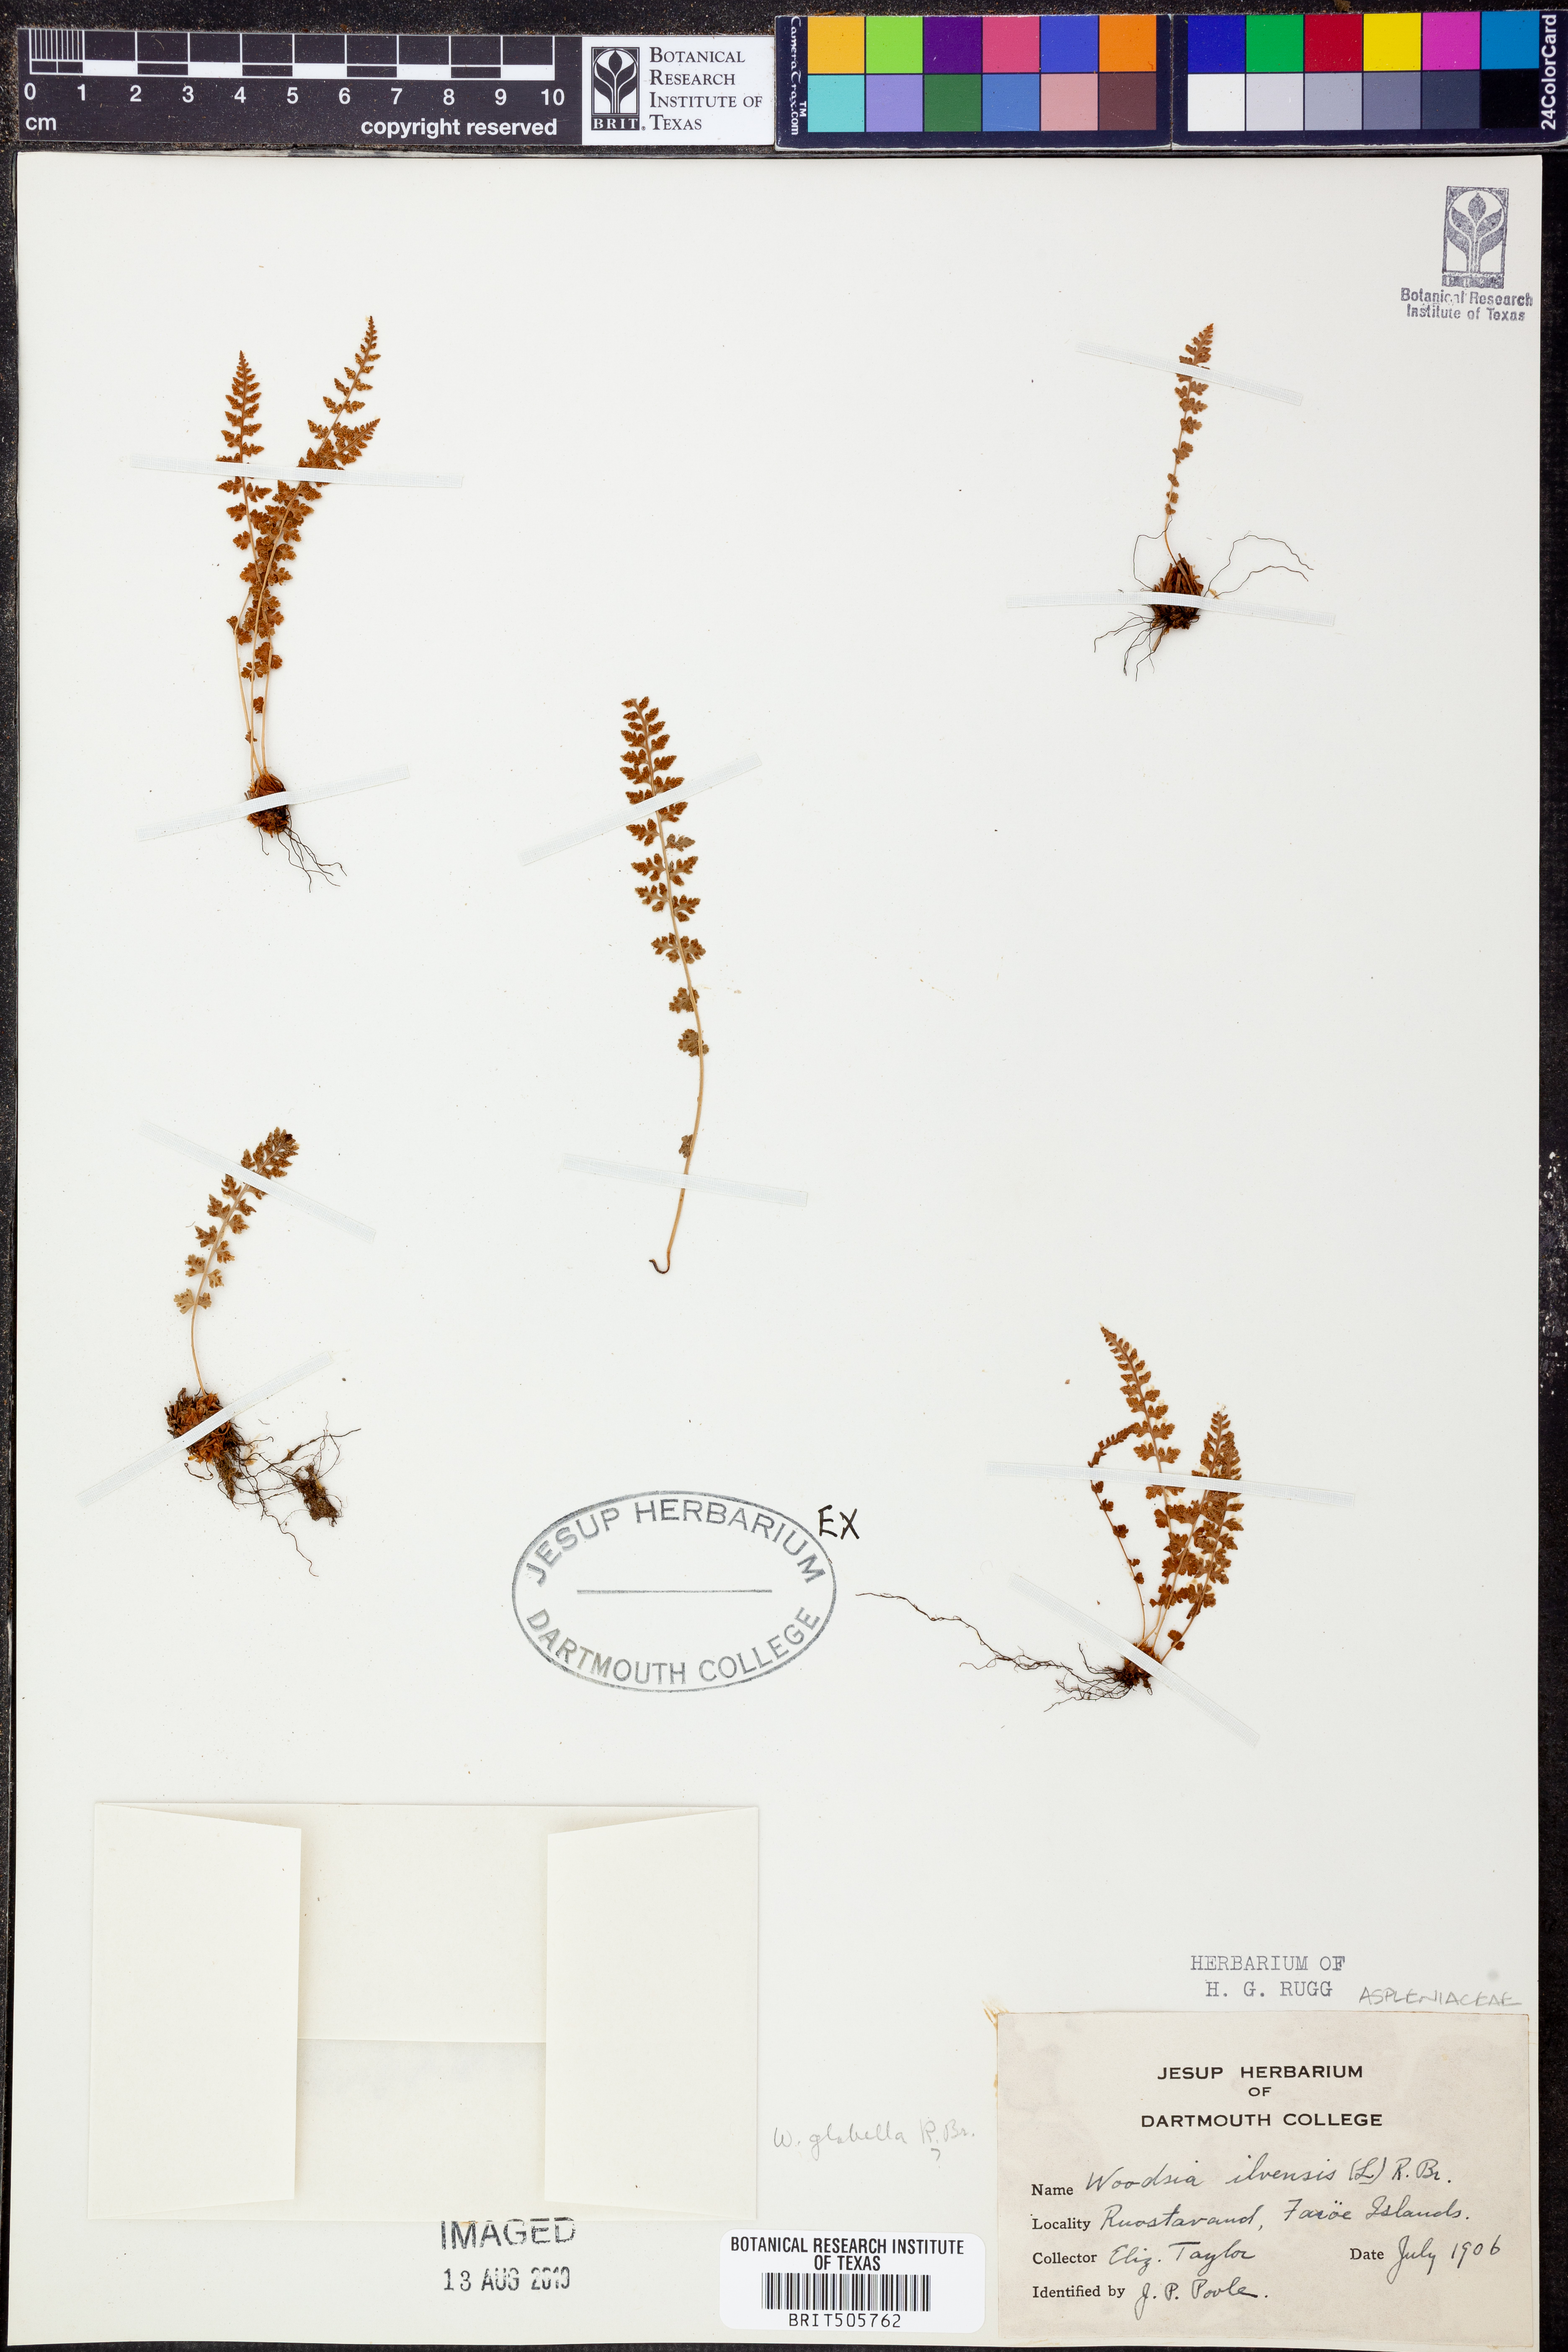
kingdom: Plantae
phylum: Tracheophyta
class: Polypodiopsida
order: Polypodiales
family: Woodsiaceae
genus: Woodsia
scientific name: Woodsia ilvensis
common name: Fragrant woodsia
